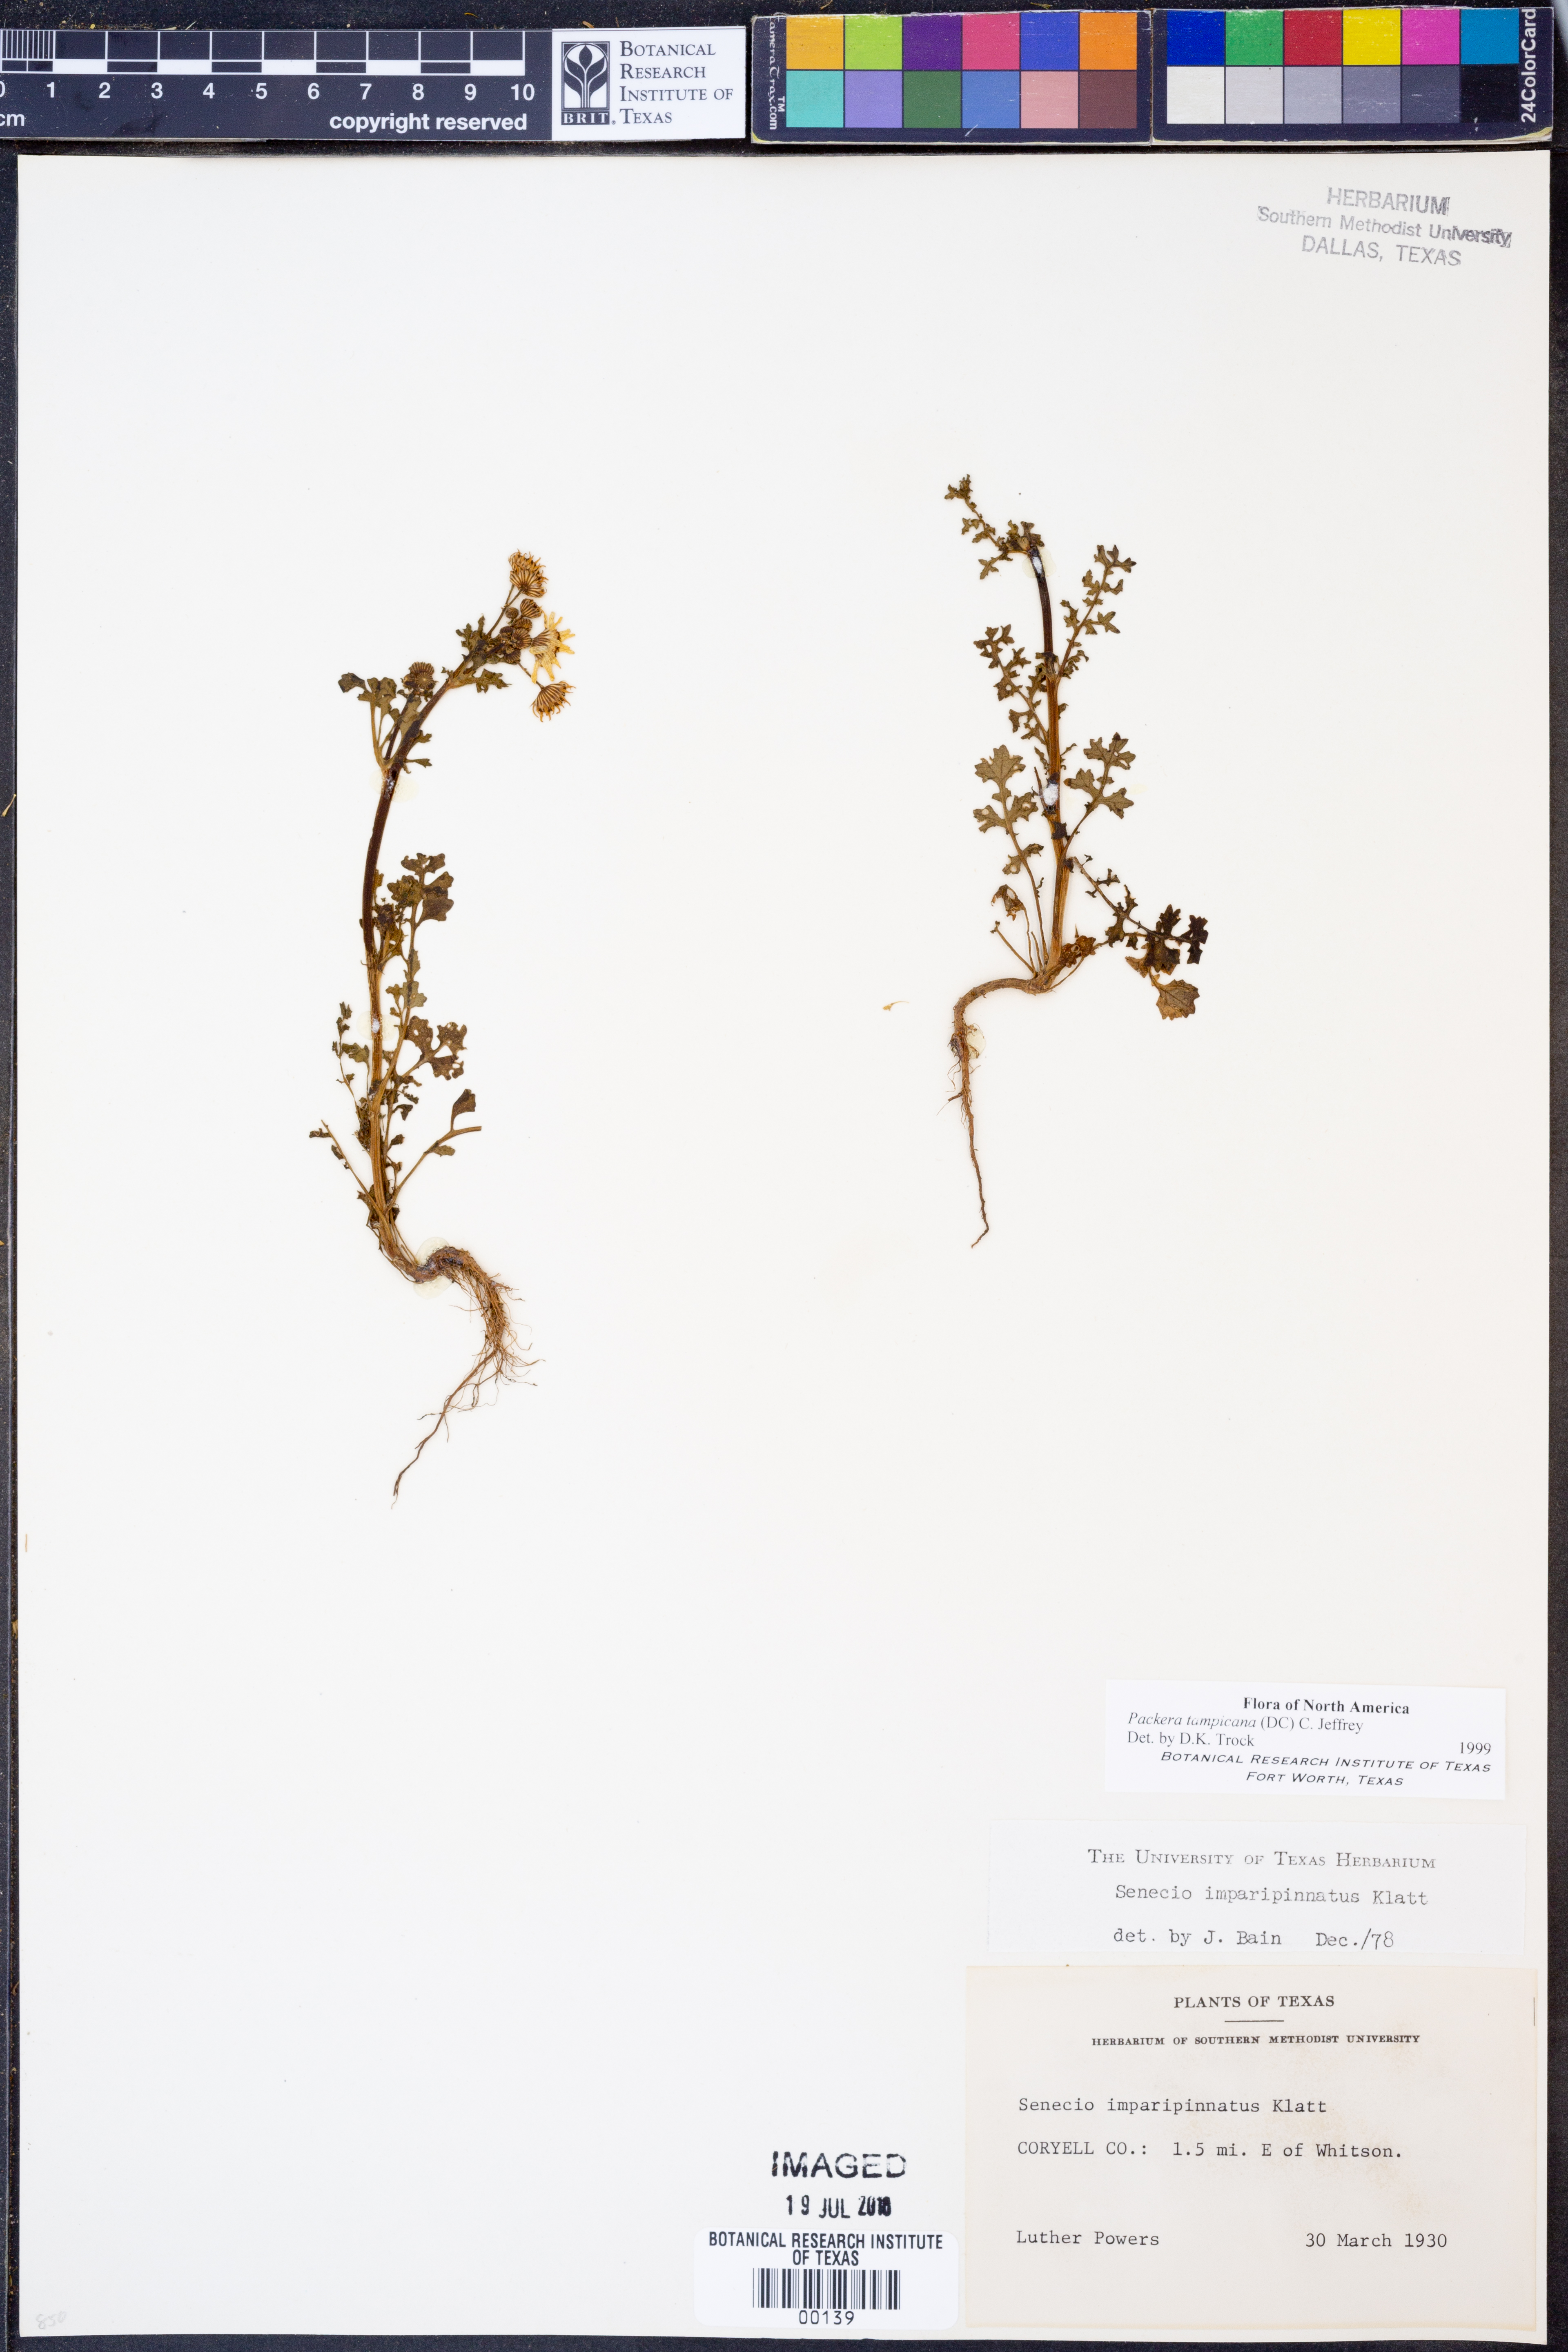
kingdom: Plantae
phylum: Tracheophyta
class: Magnoliopsida
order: Asterales
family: Asteraceae
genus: Packera
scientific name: Packera tampicana
